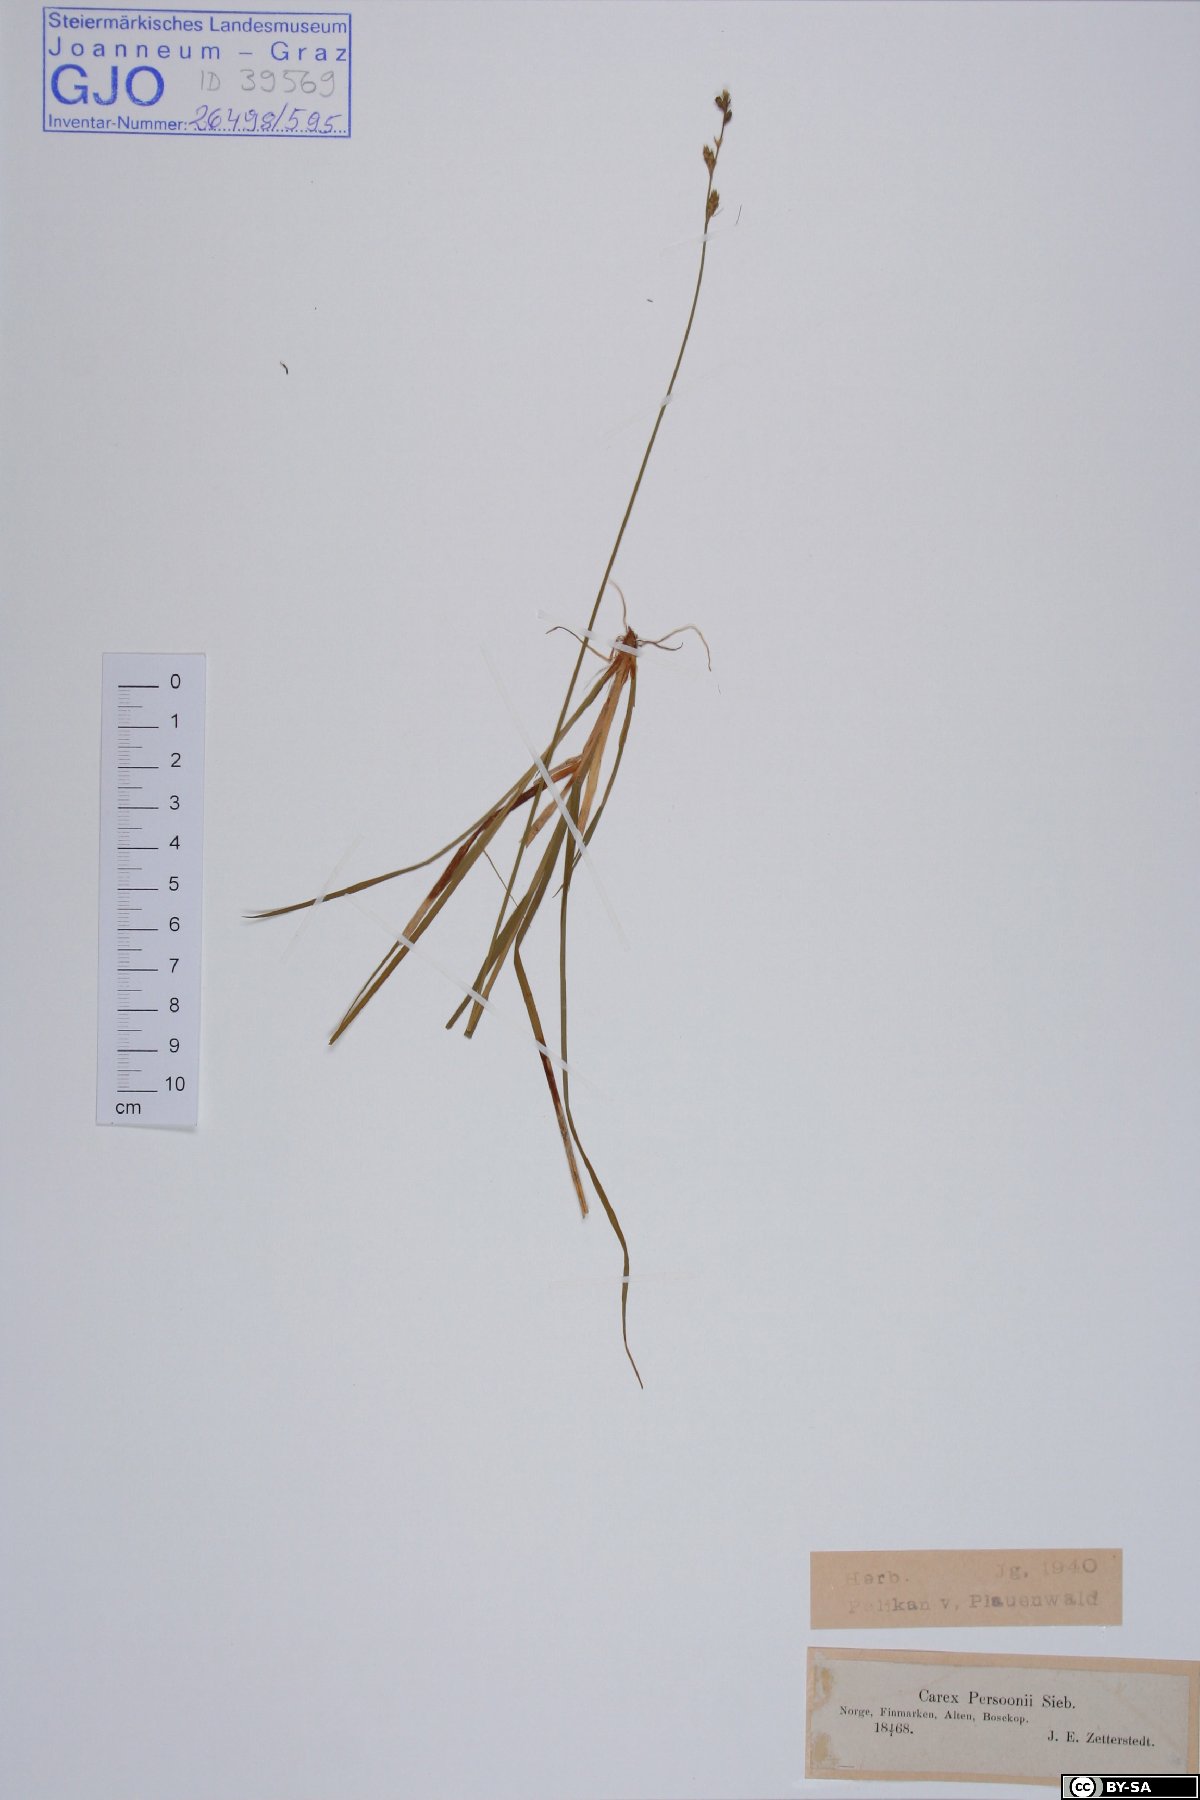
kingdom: Plantae
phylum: Tracheophyta
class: Liliopsida
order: Poales
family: Cyperaceae
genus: Carex
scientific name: Carex wahlenbergiana
